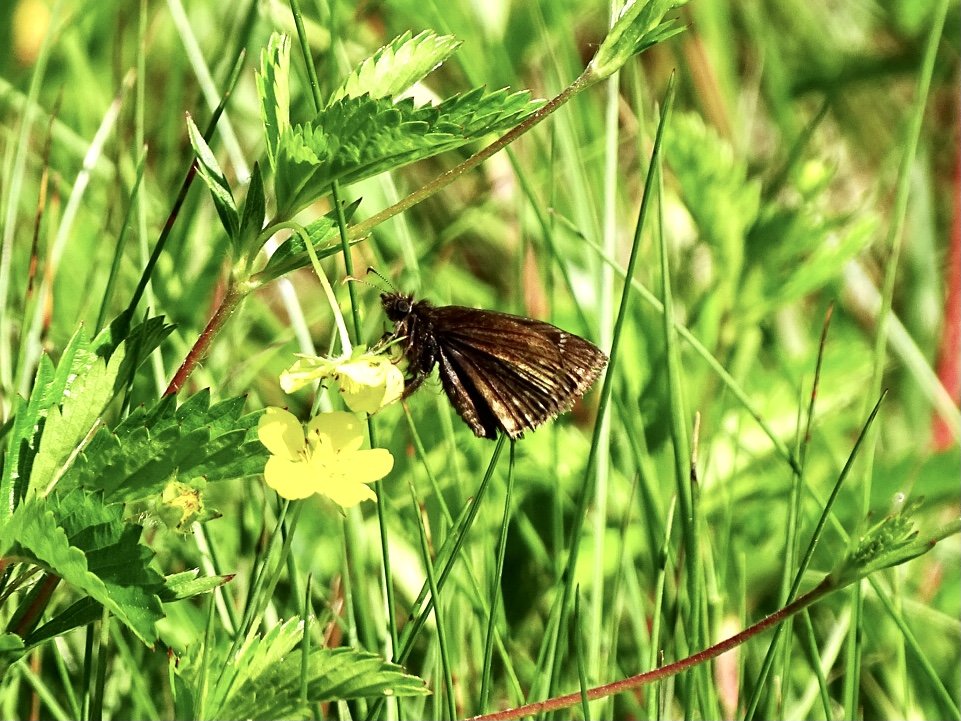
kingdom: Animalia
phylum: Arthropoda
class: Insecta
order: Lepidoptera
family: Hesperiidae
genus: Gesta
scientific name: Gesta
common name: Wild Indigo Duskywing
